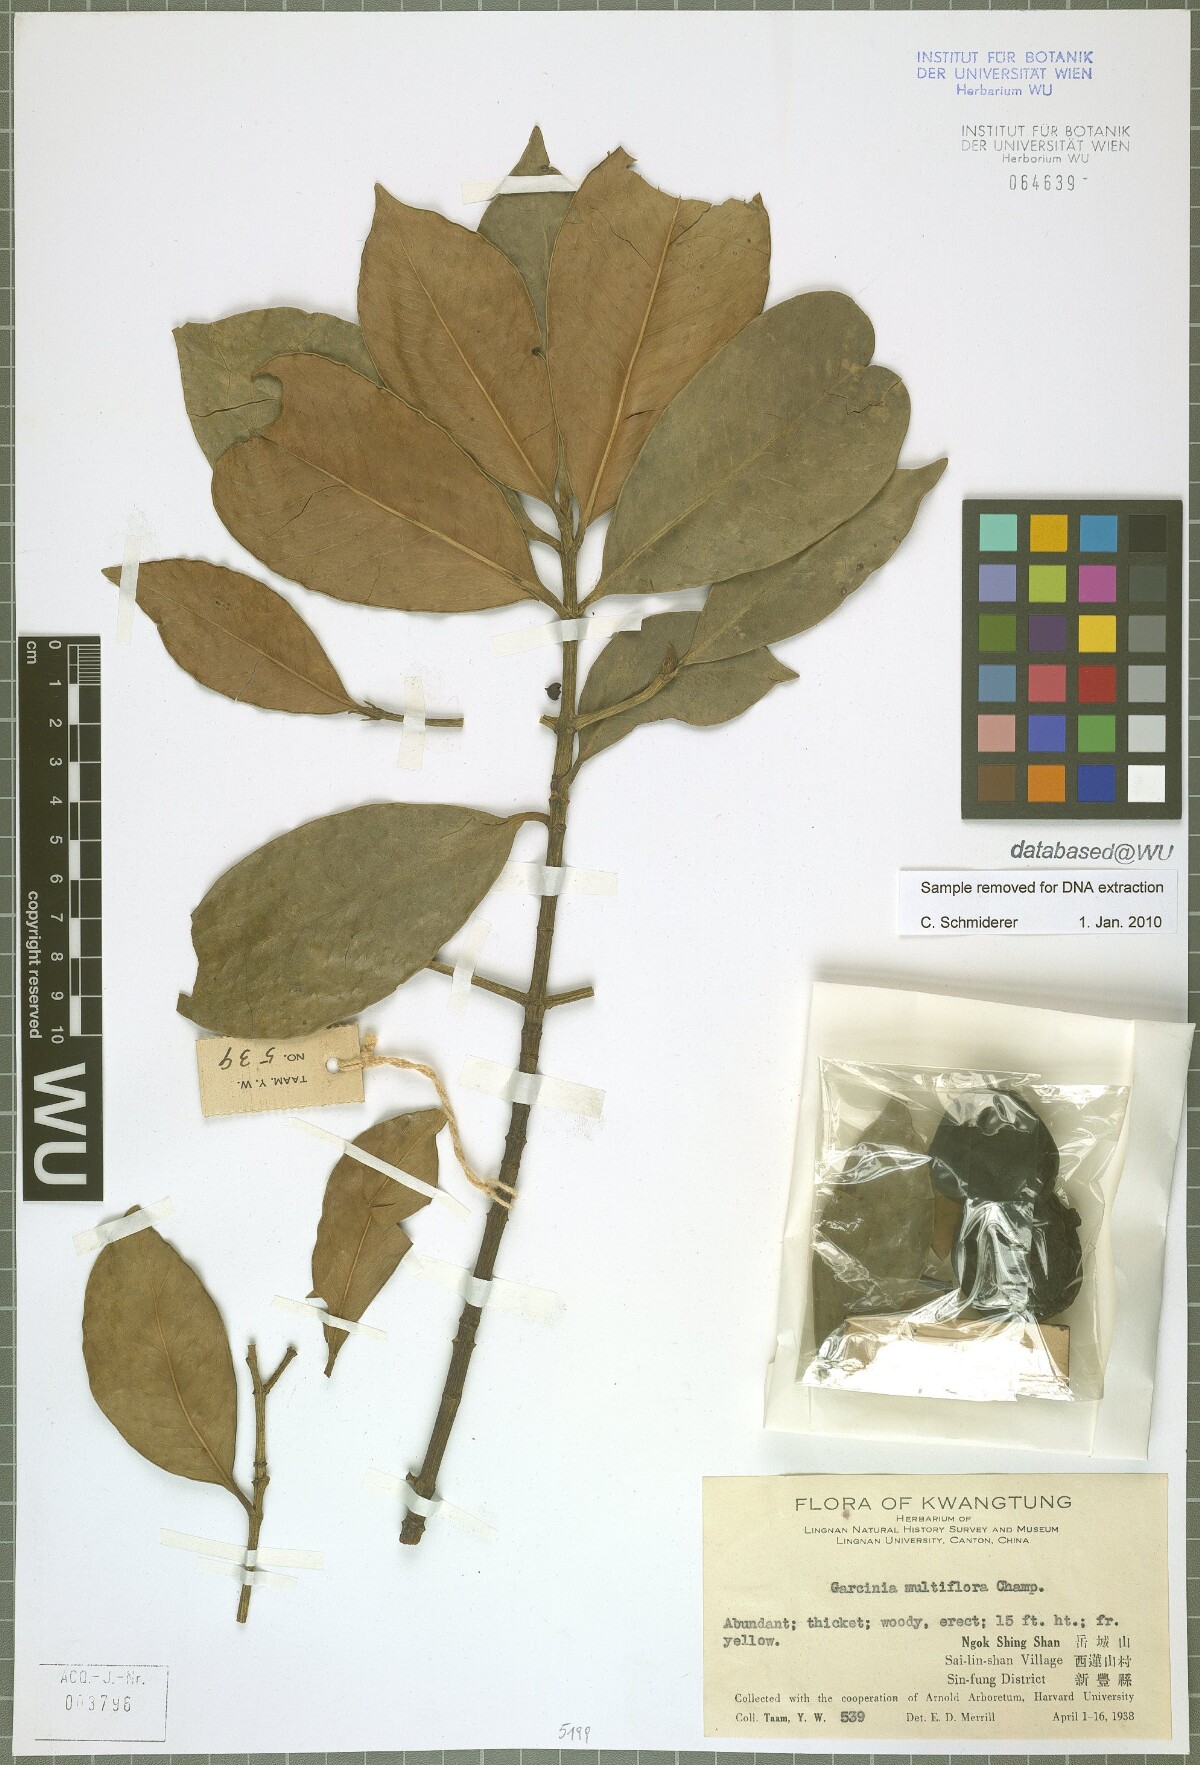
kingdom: Plantae
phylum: Tracheophyta
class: Magnoliopsida
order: Malpighiales
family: Clusiaceae
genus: Garcinia
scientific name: Garcinia multiflora
